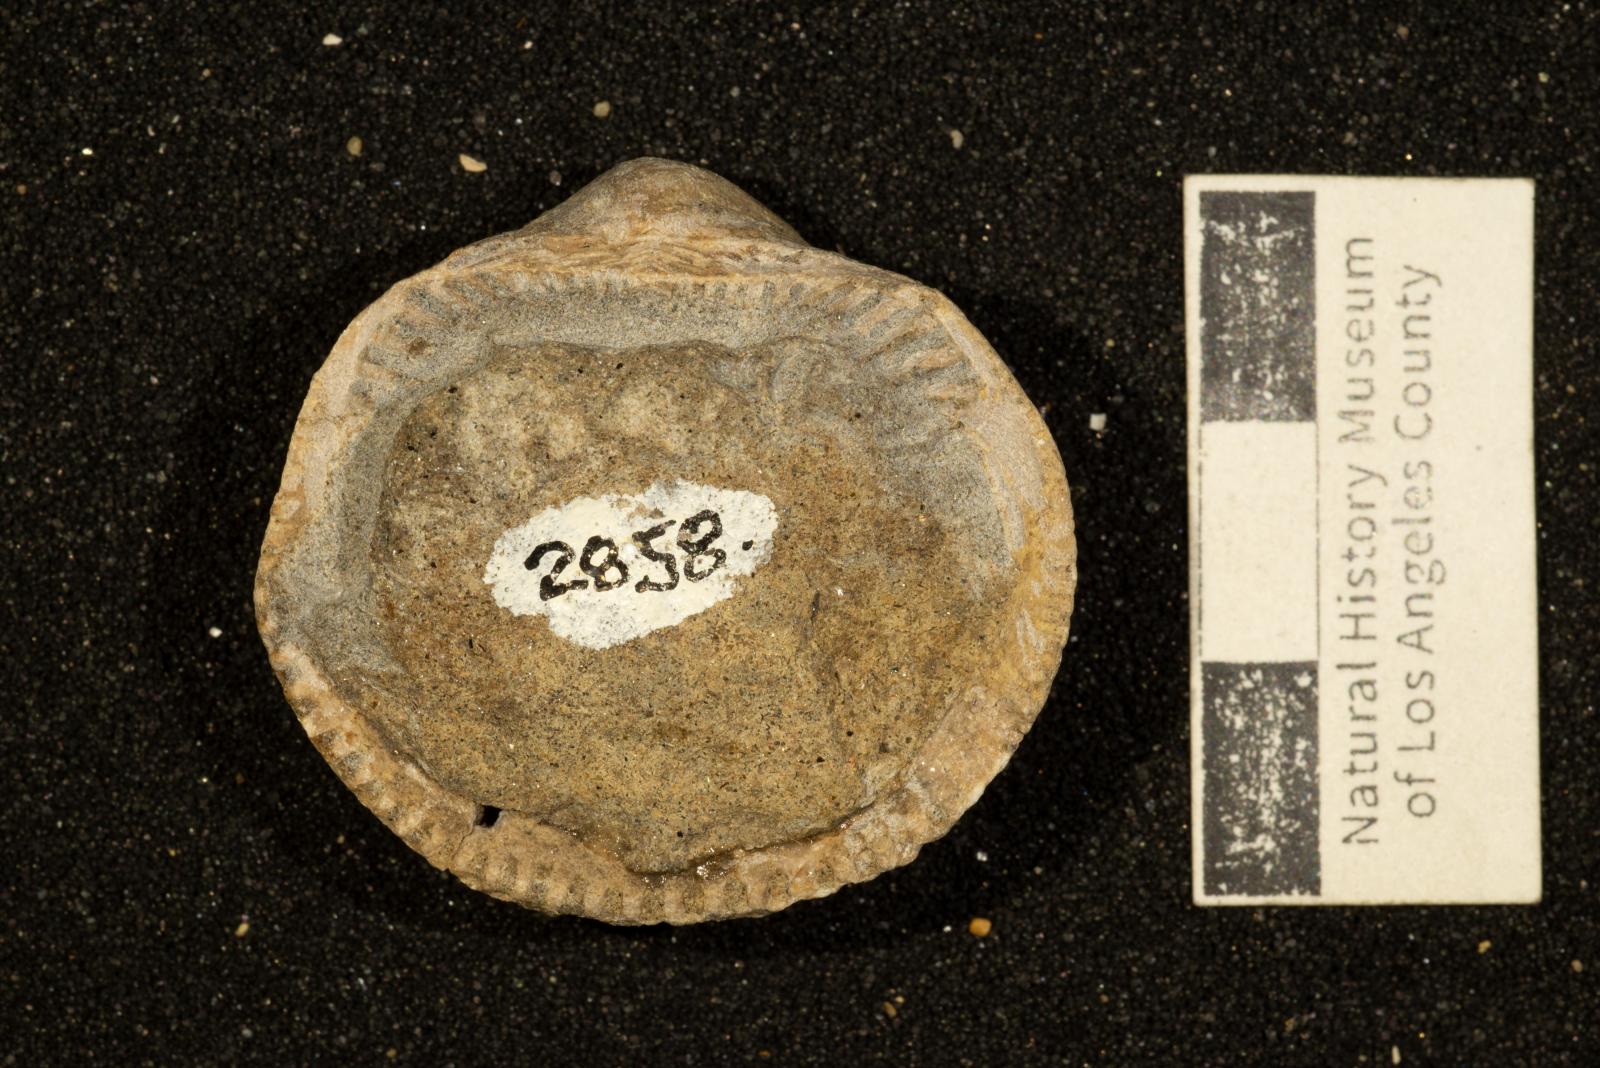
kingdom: Animalia
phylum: Mollusca
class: Bivalvia
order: Arcida
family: Glycymerididae
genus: Glycymerita
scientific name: Glycymerita Glycymeris banosensis
